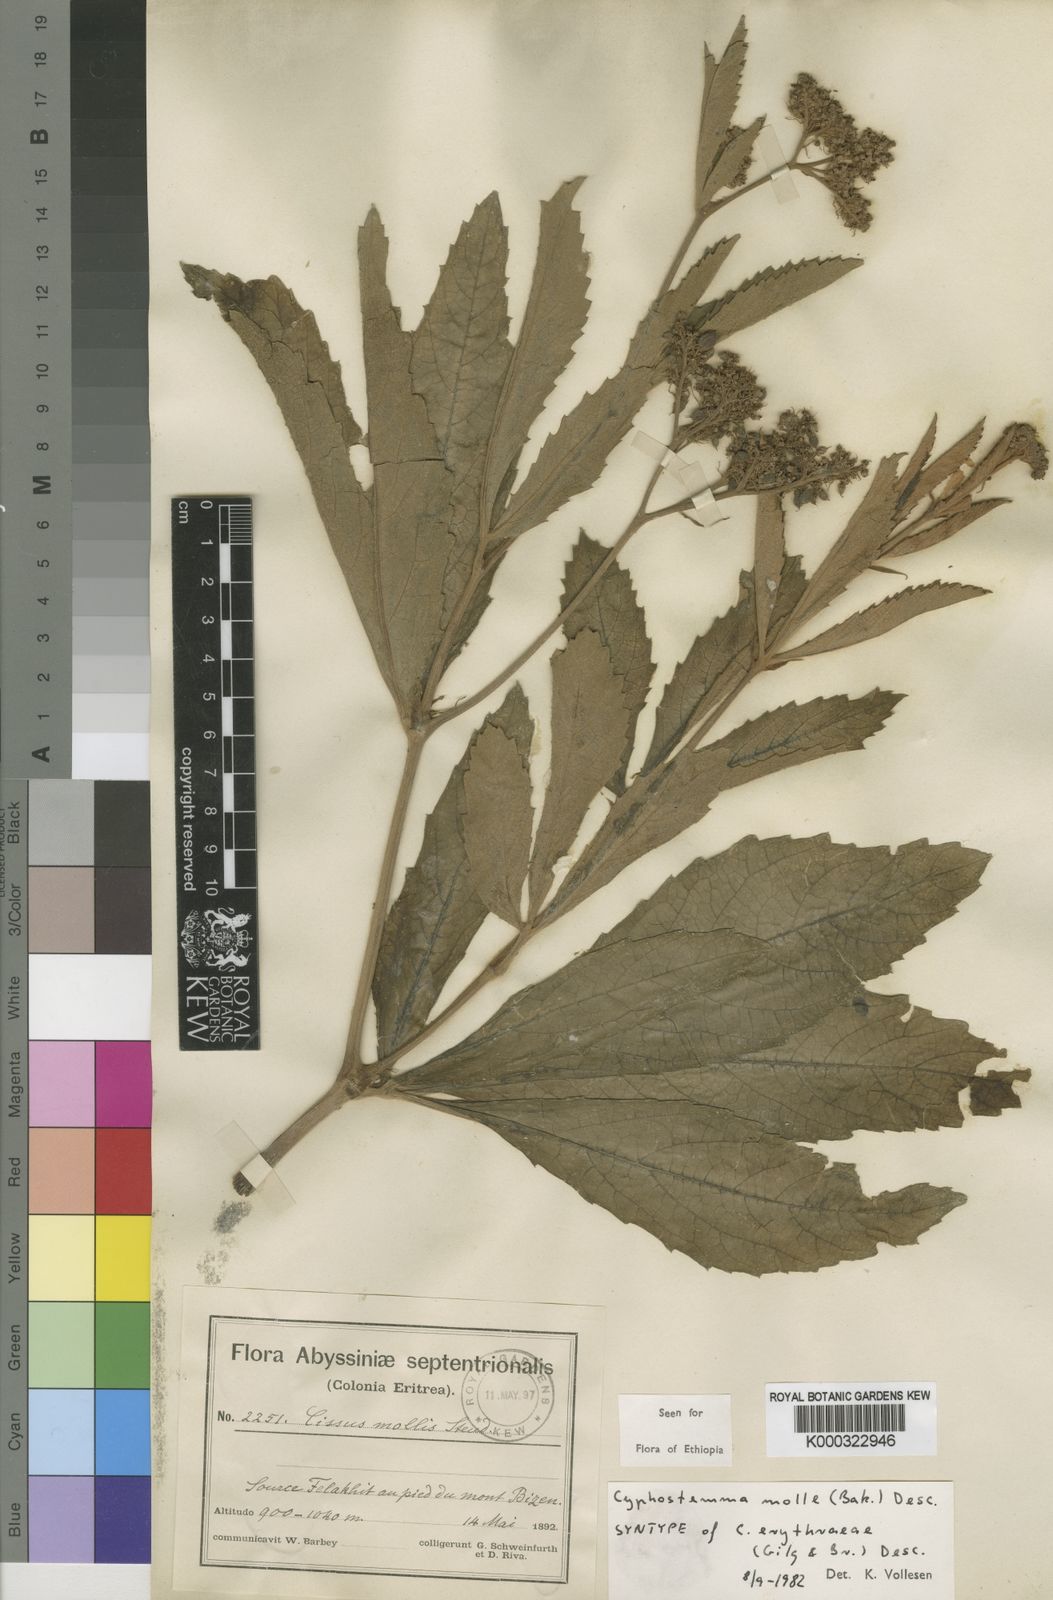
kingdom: Plantae
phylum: Tracheophyta
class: Magnoliopsida
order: Vitales
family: Vitaceae
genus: Cyphostemma
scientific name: Cyphostemma molle
